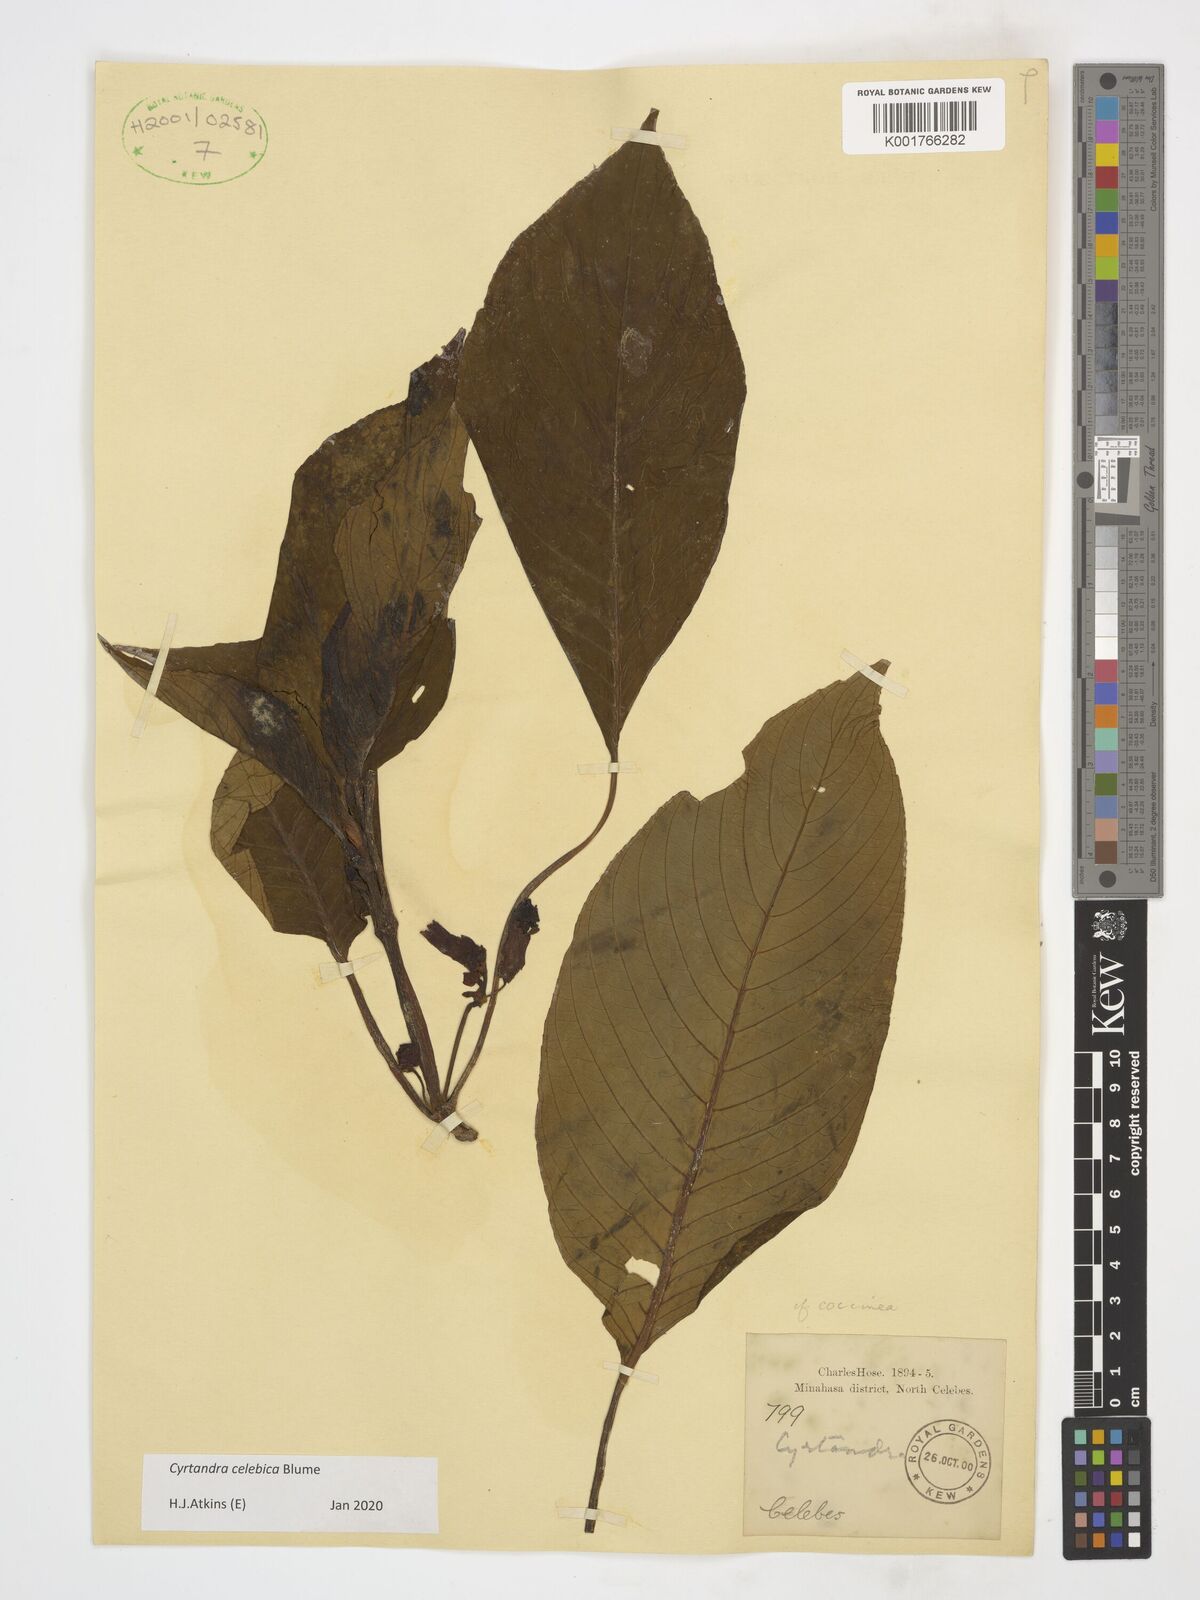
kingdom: Plantae
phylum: Tracheophyta
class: Magnoliopsida
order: Lamiales
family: Gesneriaceae
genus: Cyrtandra
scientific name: Cyrtandra coccinea
